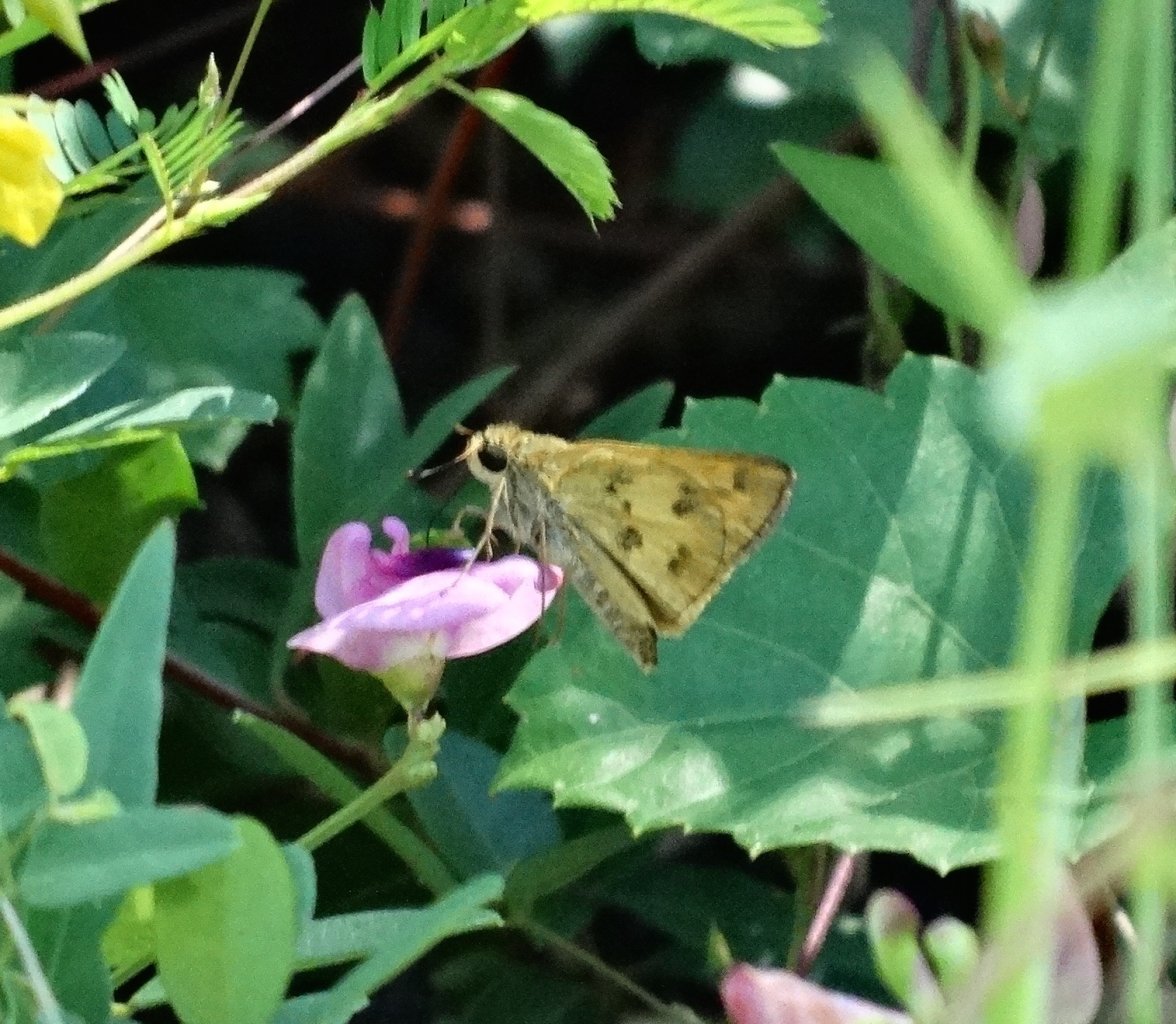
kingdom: Animalia
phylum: Arthropoda
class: Insecta
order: Lepidoptera
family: Hesperiidae
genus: Polites
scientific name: Polites vibex
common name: Whirlabout
